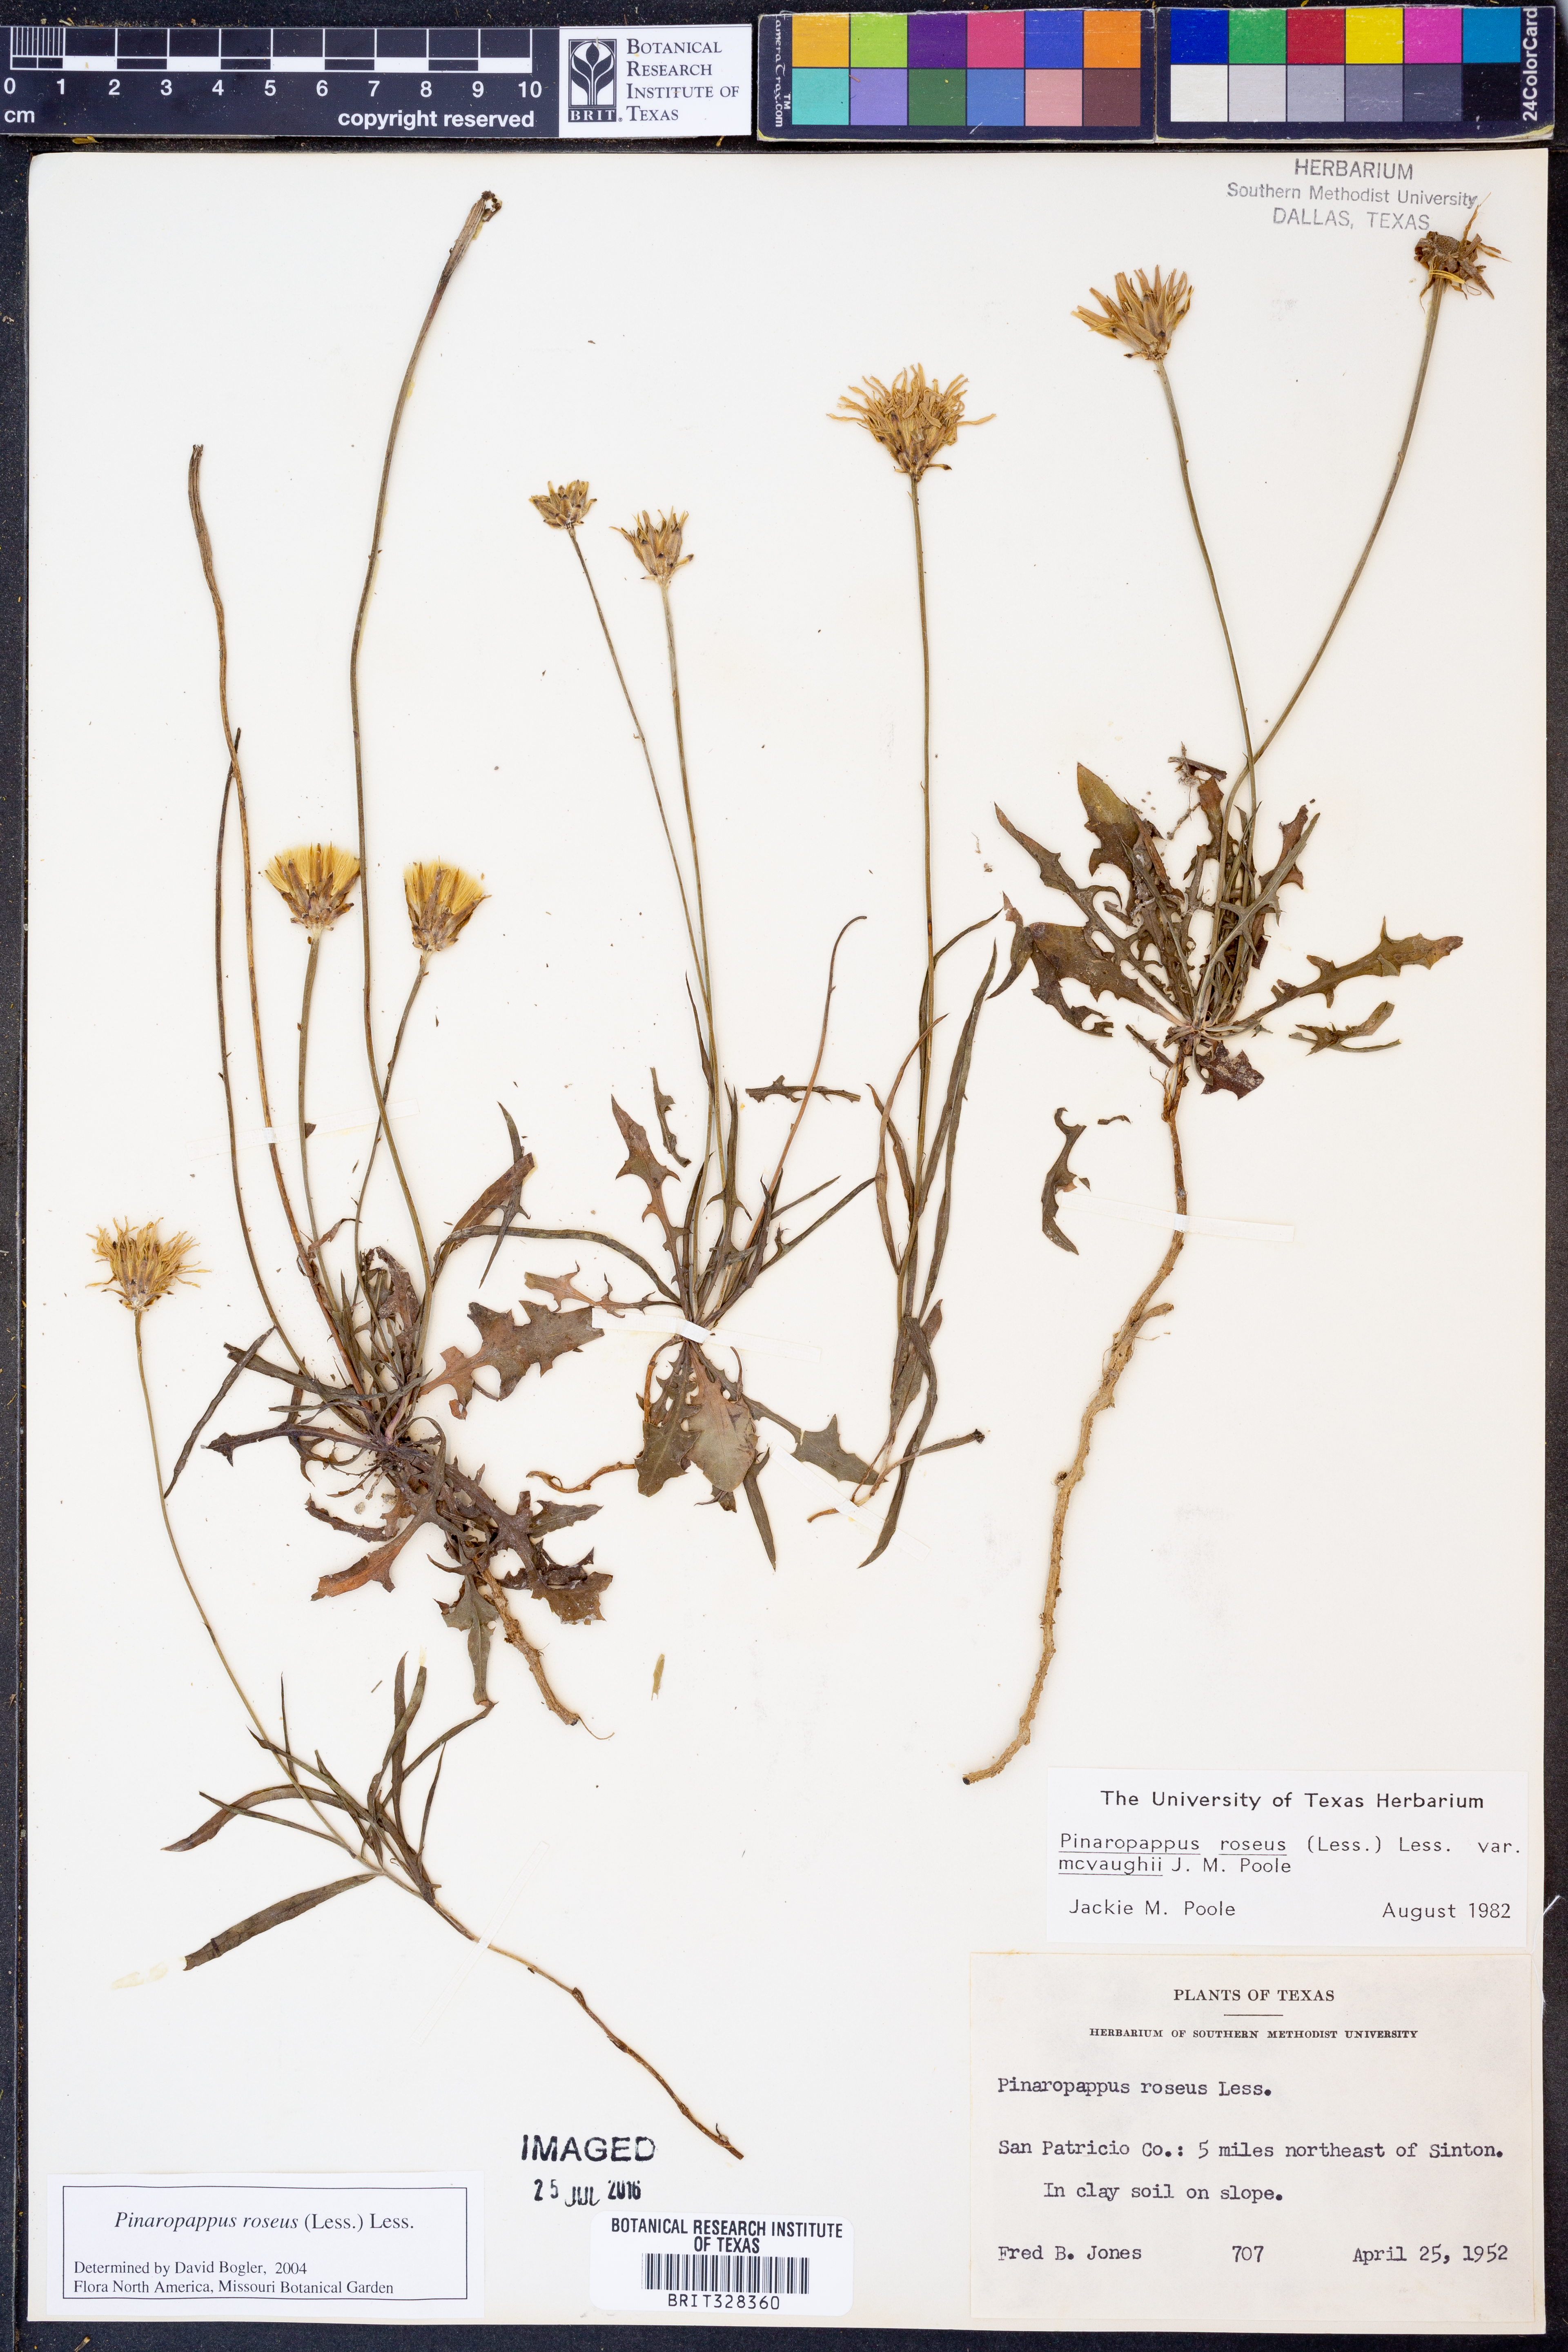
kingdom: Plantae
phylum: Tracheophyta
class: Magnoliopsida
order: Asterales
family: Asteraceae
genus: Pinaropappus
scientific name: Pinaropappus roseus
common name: Rock-lettuce
